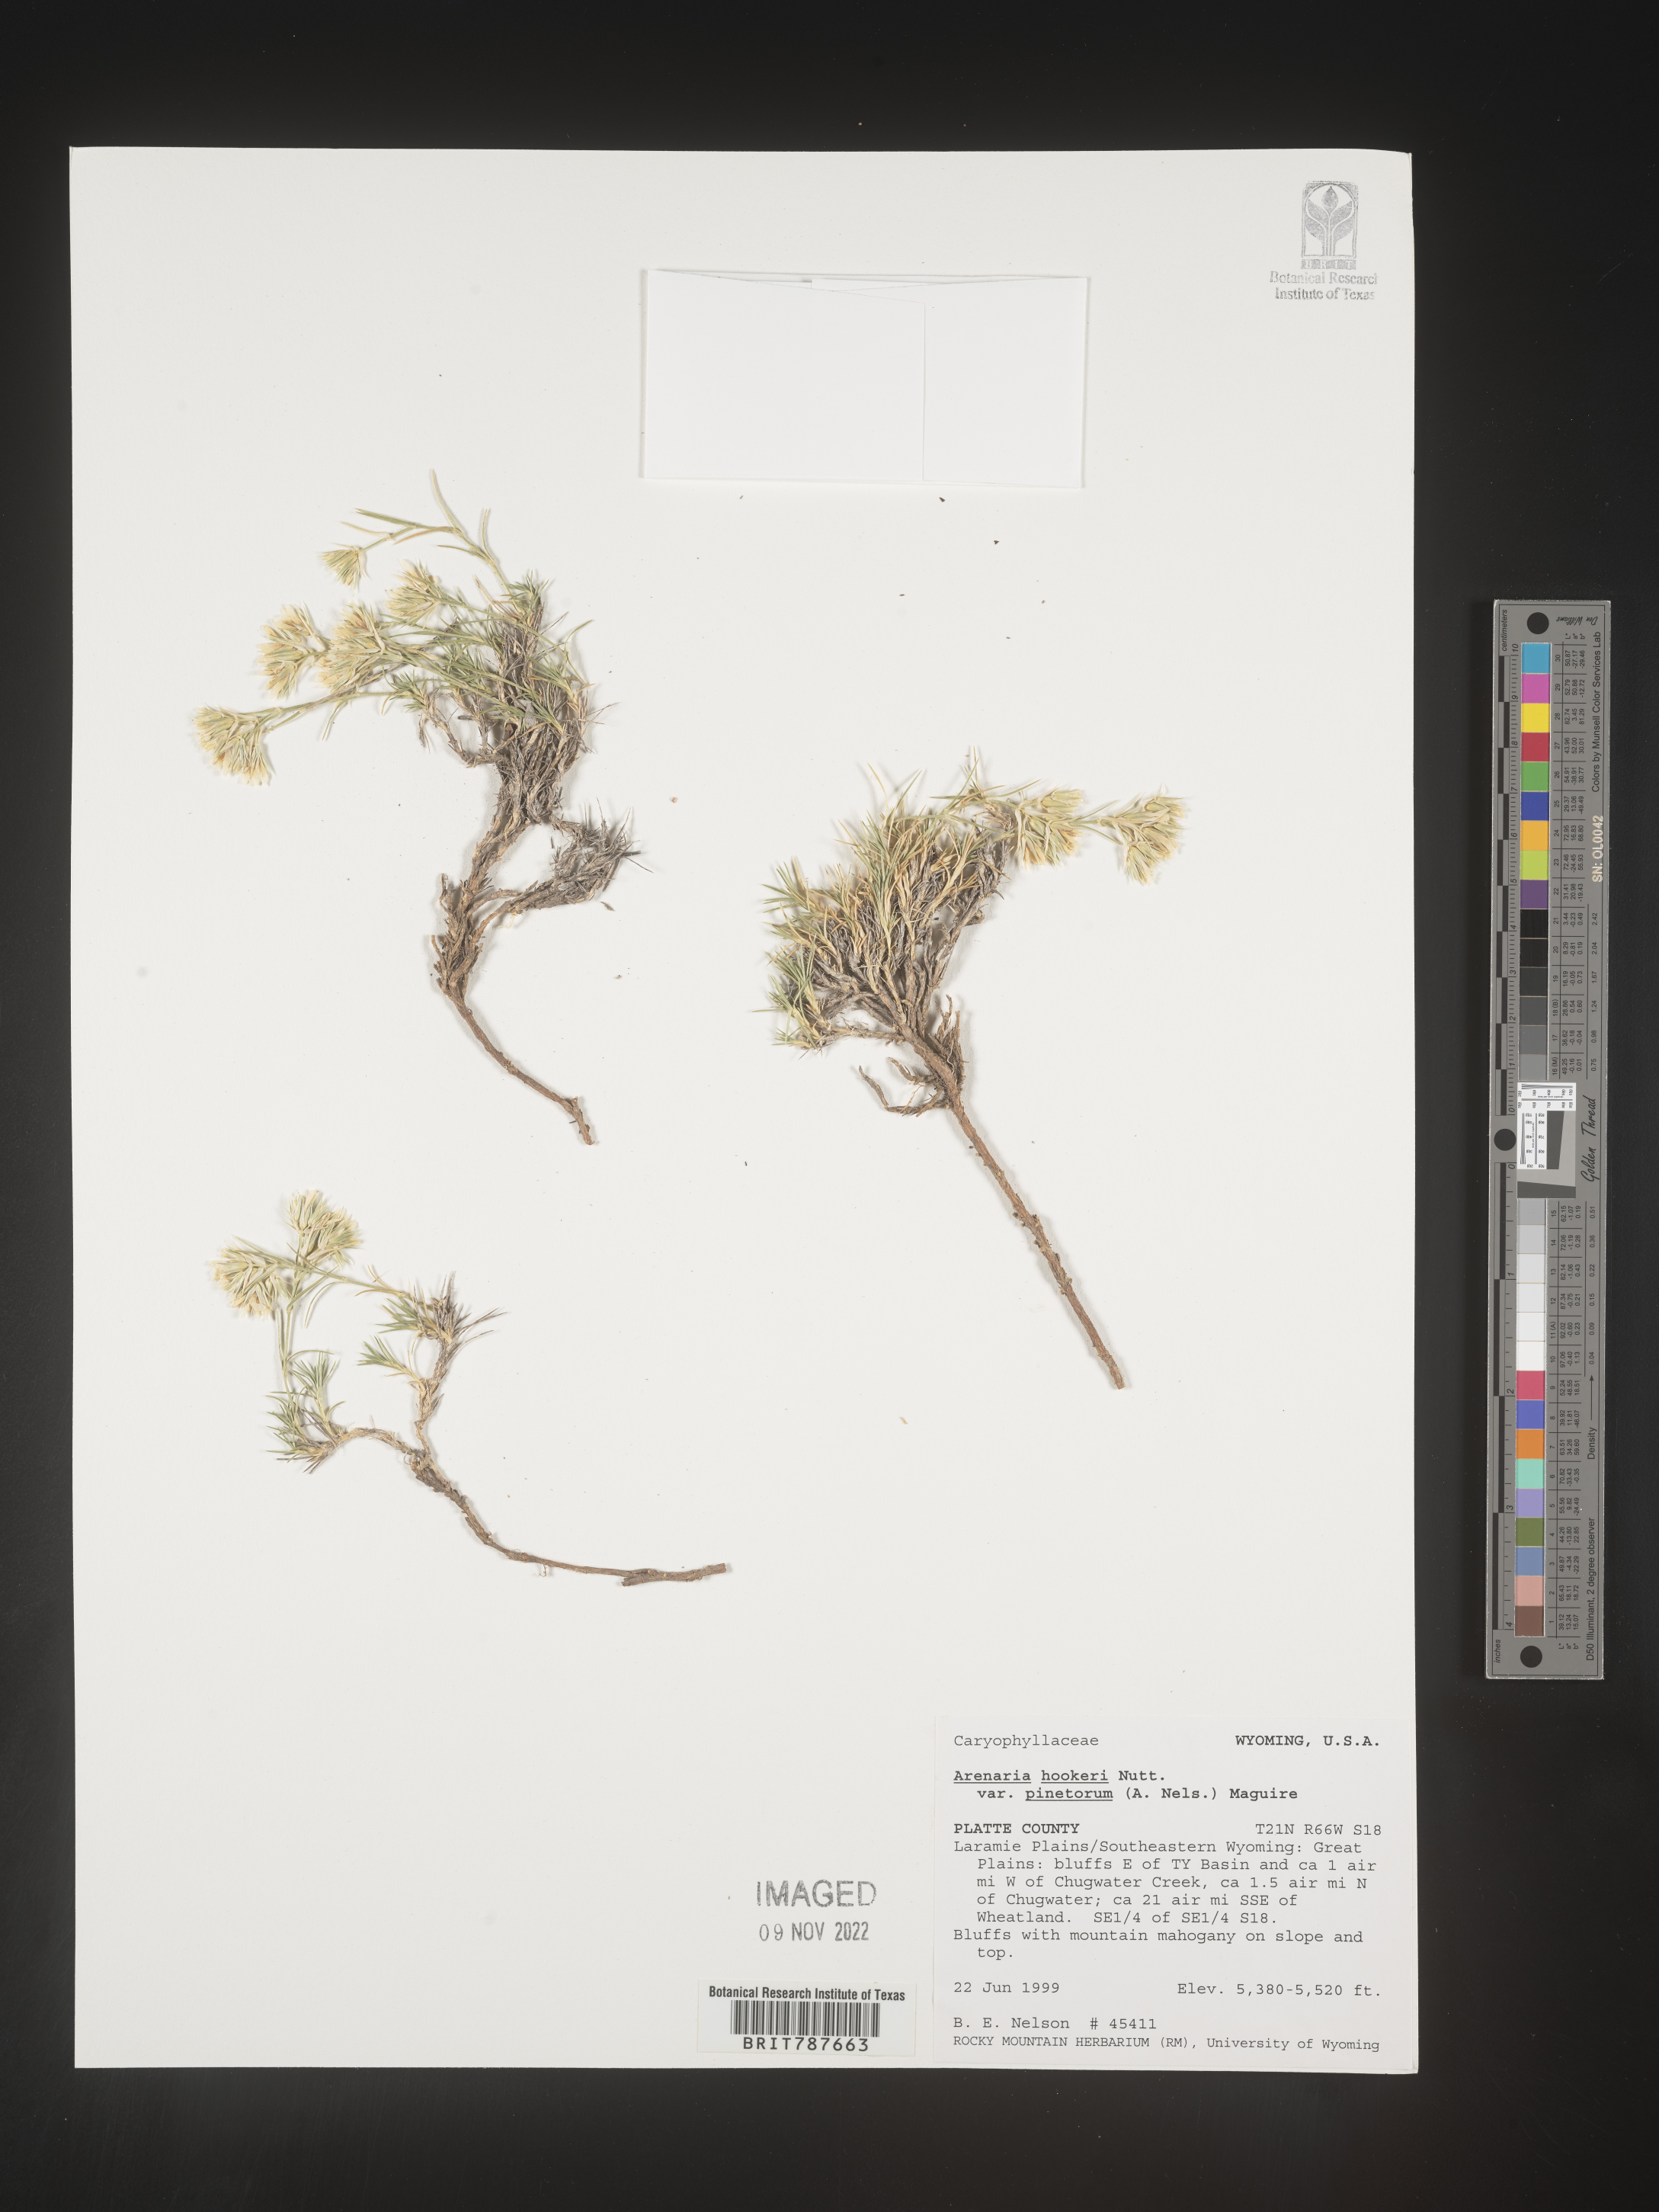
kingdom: Plantae
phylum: Tracheophyta
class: Magnoliopsida
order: Caryophyllales
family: Caryophyllaceae
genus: Arenaria
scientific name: Arenaria
